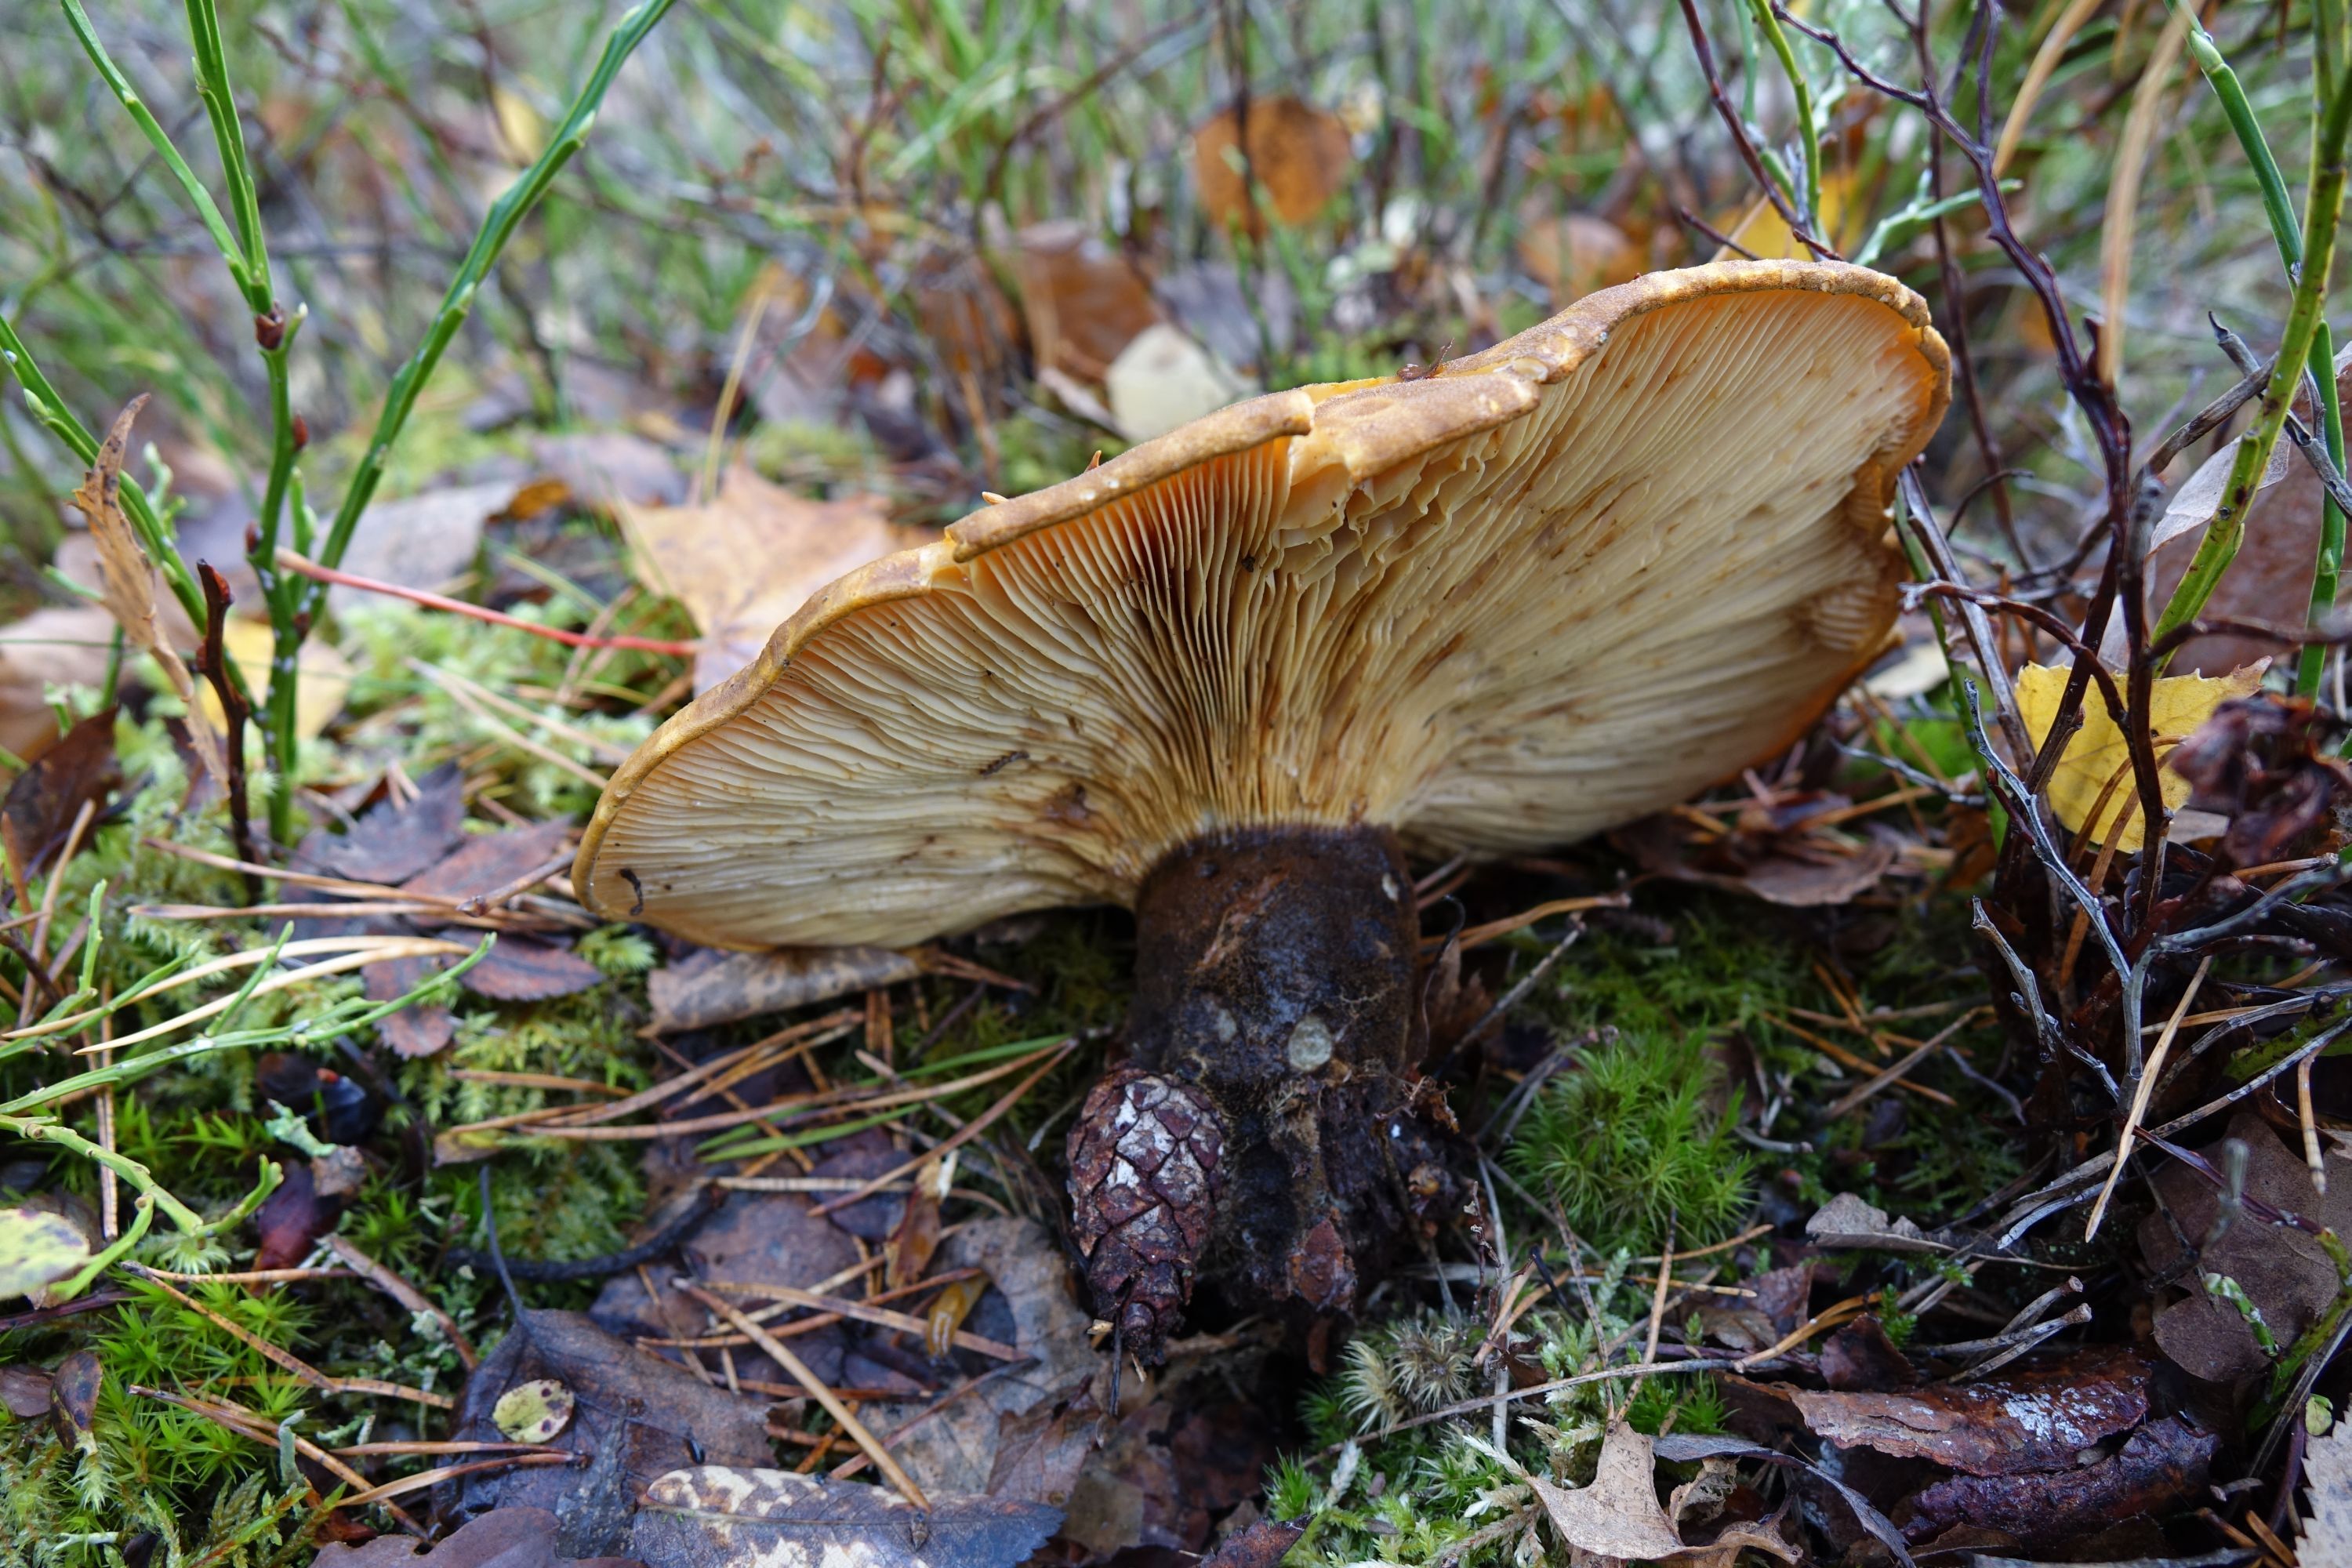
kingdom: Fungi
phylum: Basidiomycota
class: Agaricomycetes
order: Boletales
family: Tapinellaceae
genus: Tapinella
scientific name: Tapinella atrotomentosa
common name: Velvet rollrim
